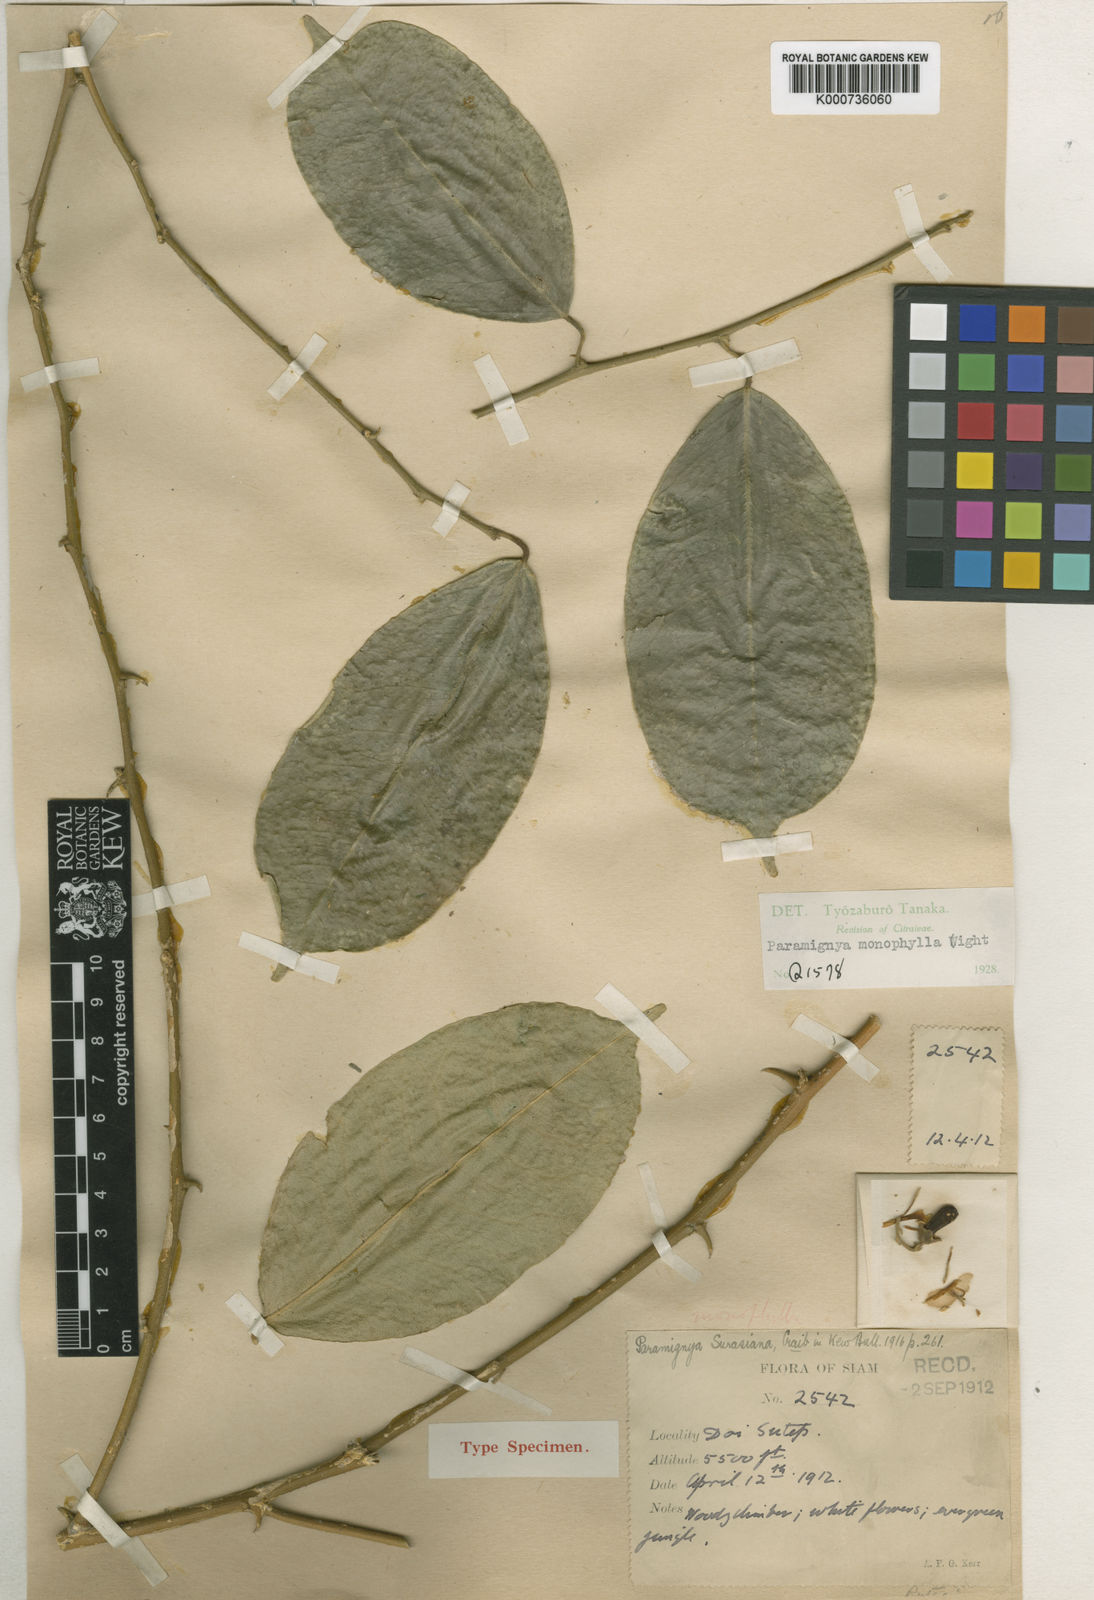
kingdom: Plantae
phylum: Tracheophyta
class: Magnoliopsida
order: Sapindales
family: Rutaceae
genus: Paramignya
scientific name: Paramignya surasiana
